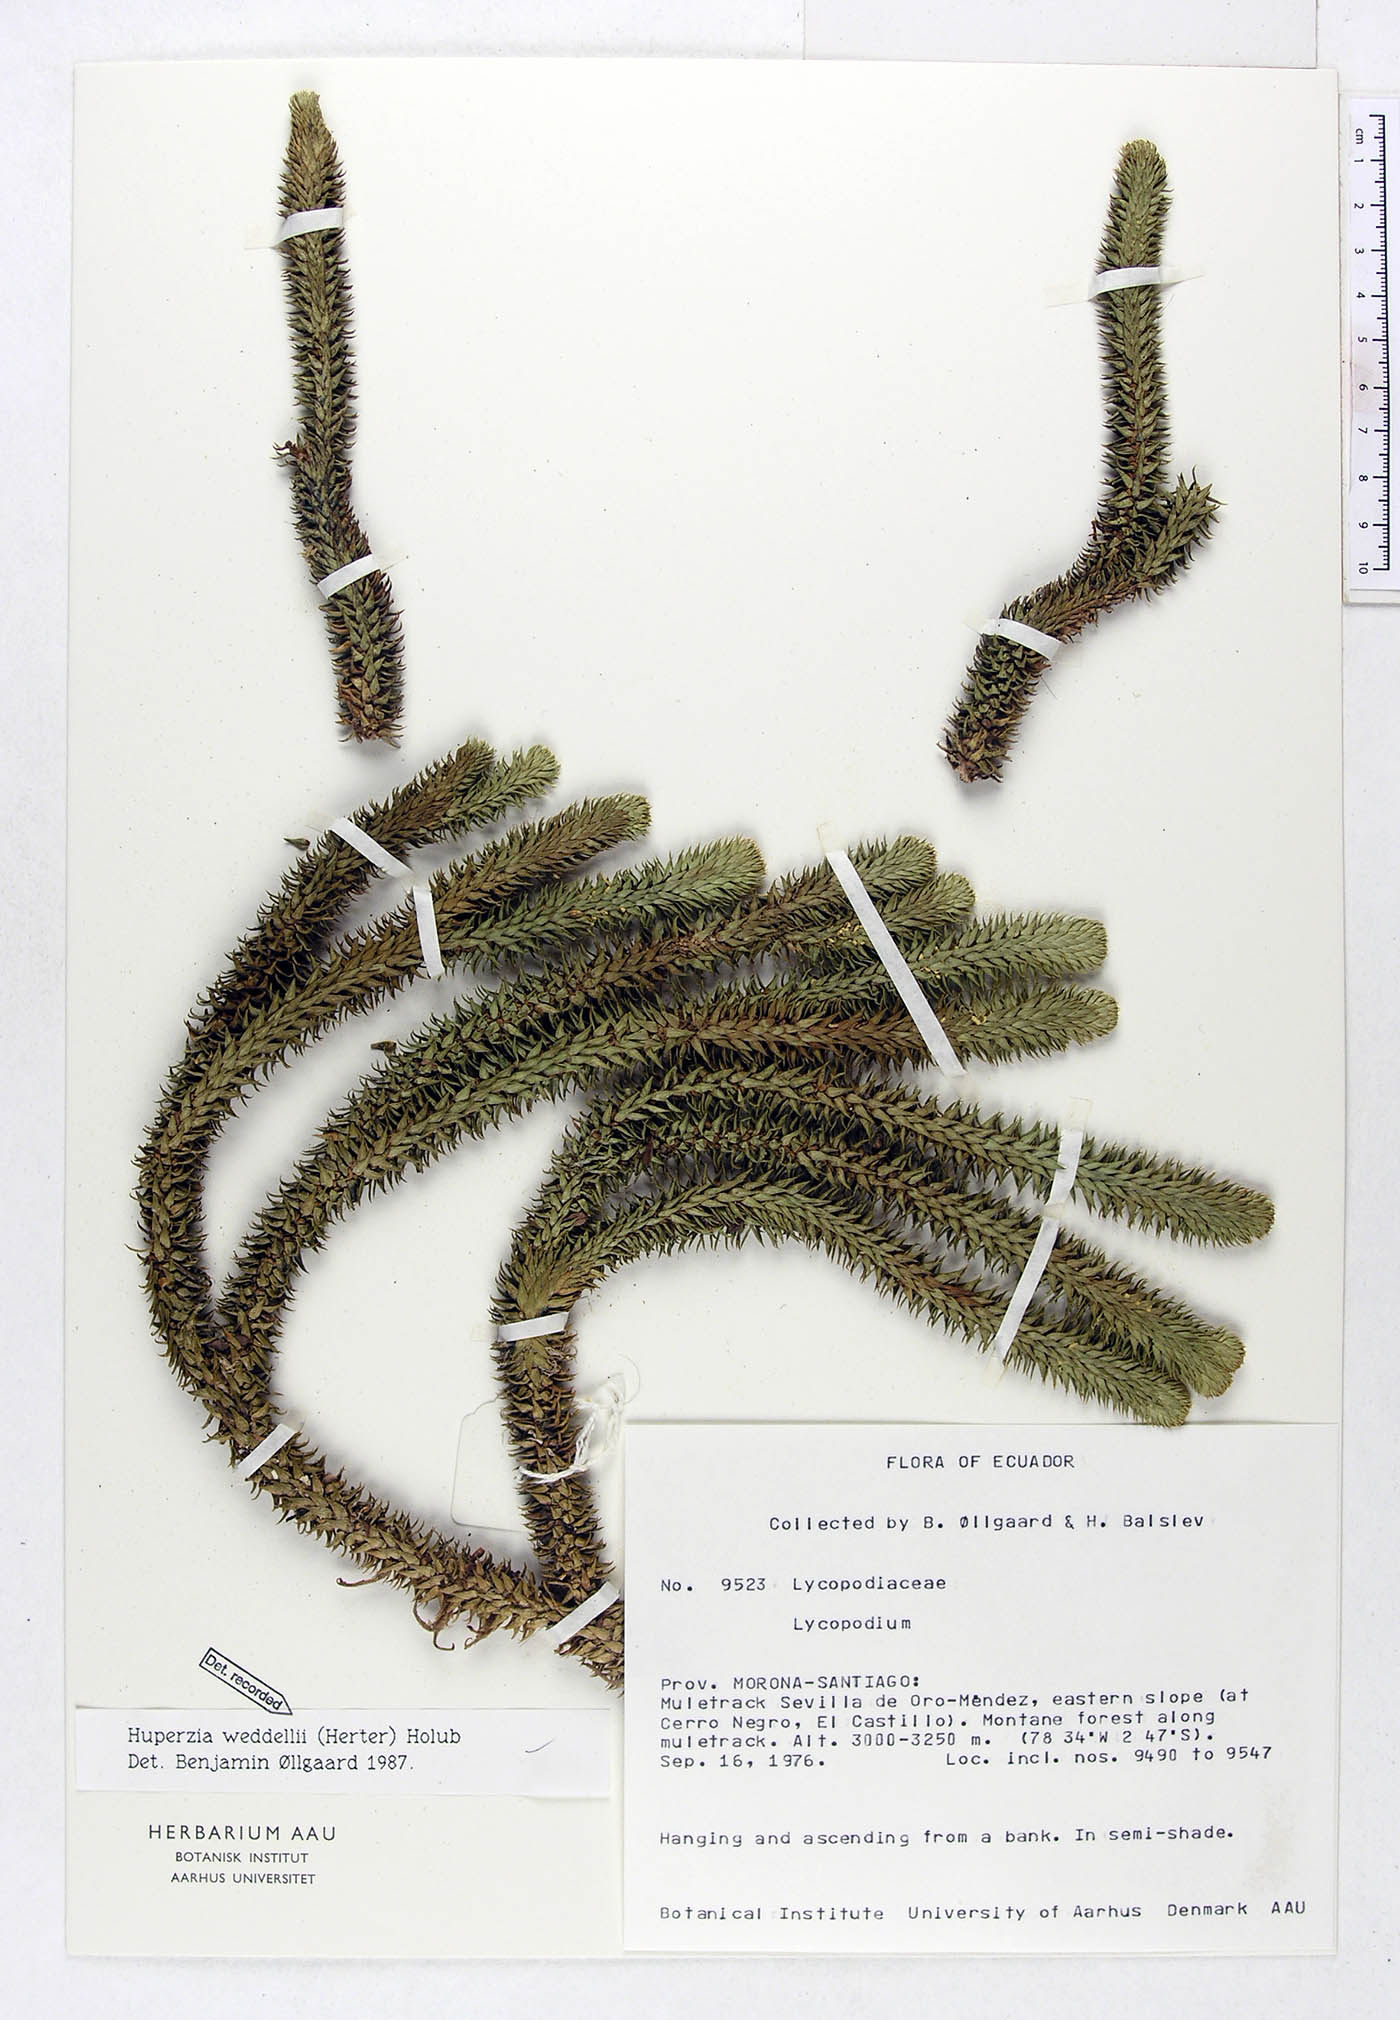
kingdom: Plantae
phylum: Tracheophyta
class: Lycopodiopsida
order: Lycopodiales
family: Lycopodiaceae
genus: Phlegmariurus
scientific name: Phlegmariurus weddellii
